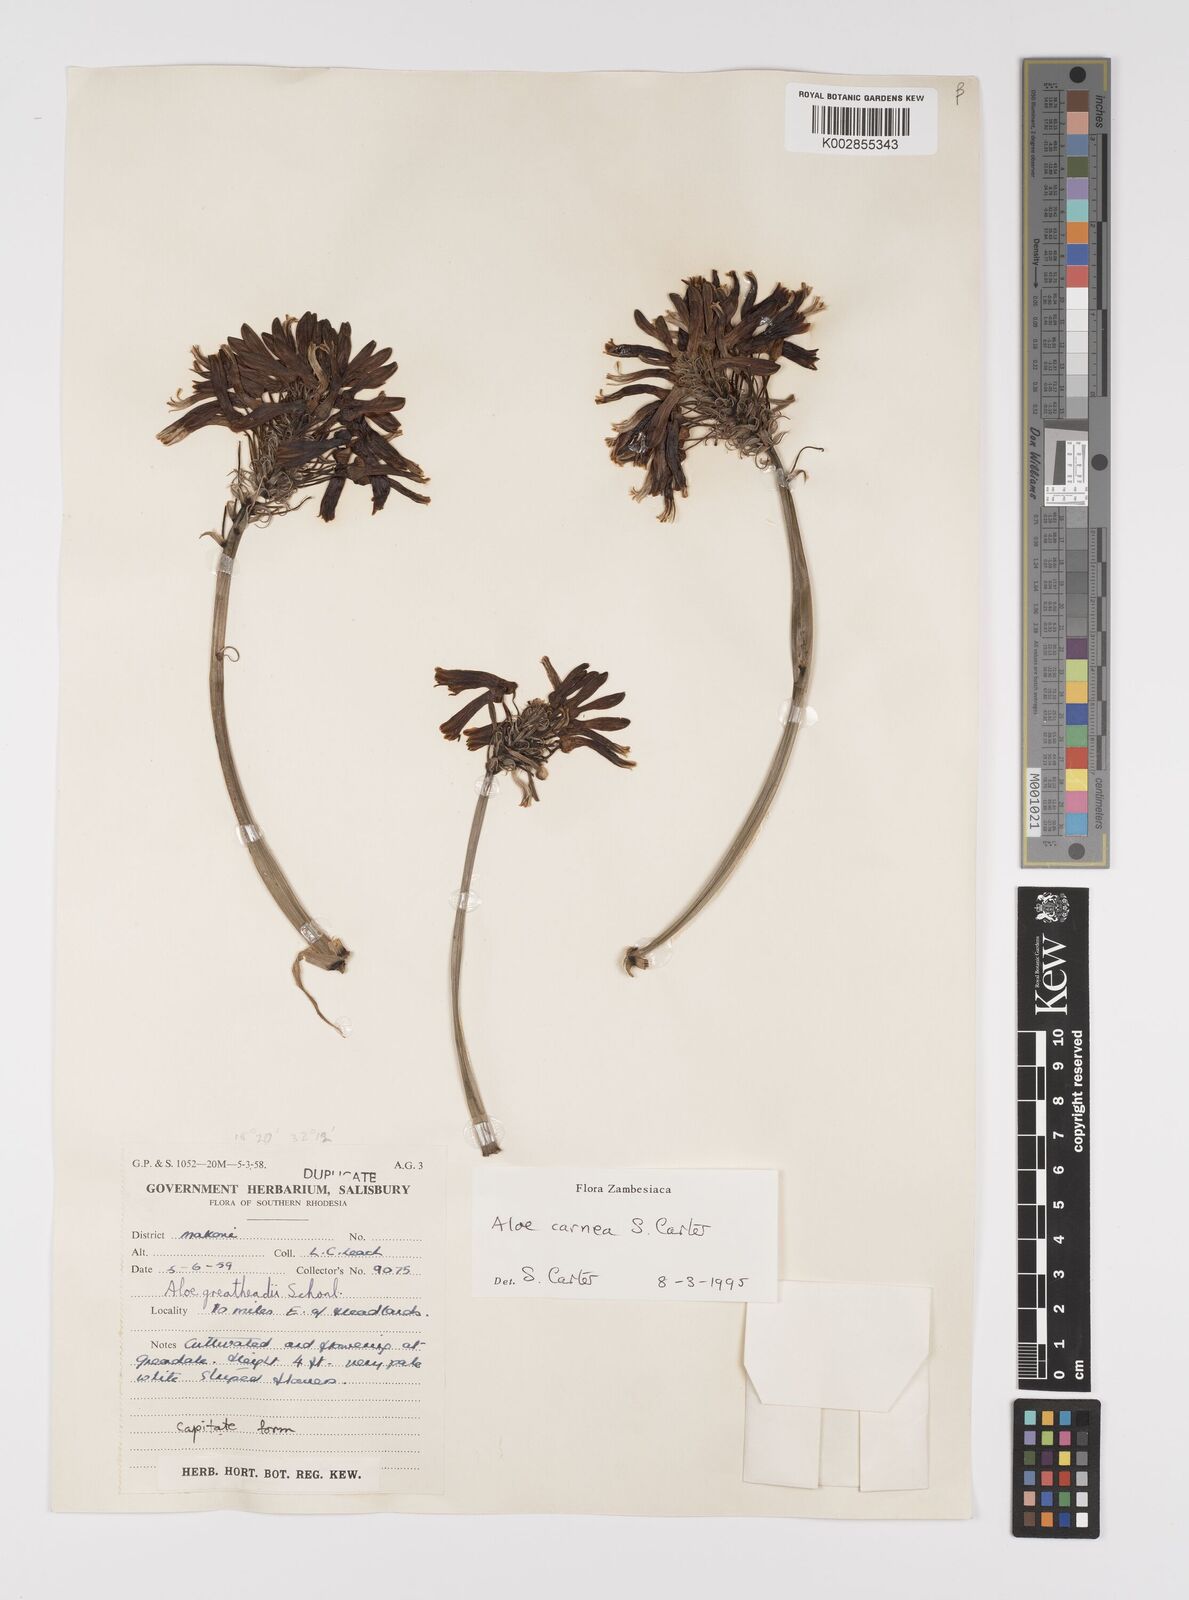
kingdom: Plantae
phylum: Tracheophyta
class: Liliopsida
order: Asparagales
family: Asphodelaceae
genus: Aloe
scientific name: Aloe carnea
